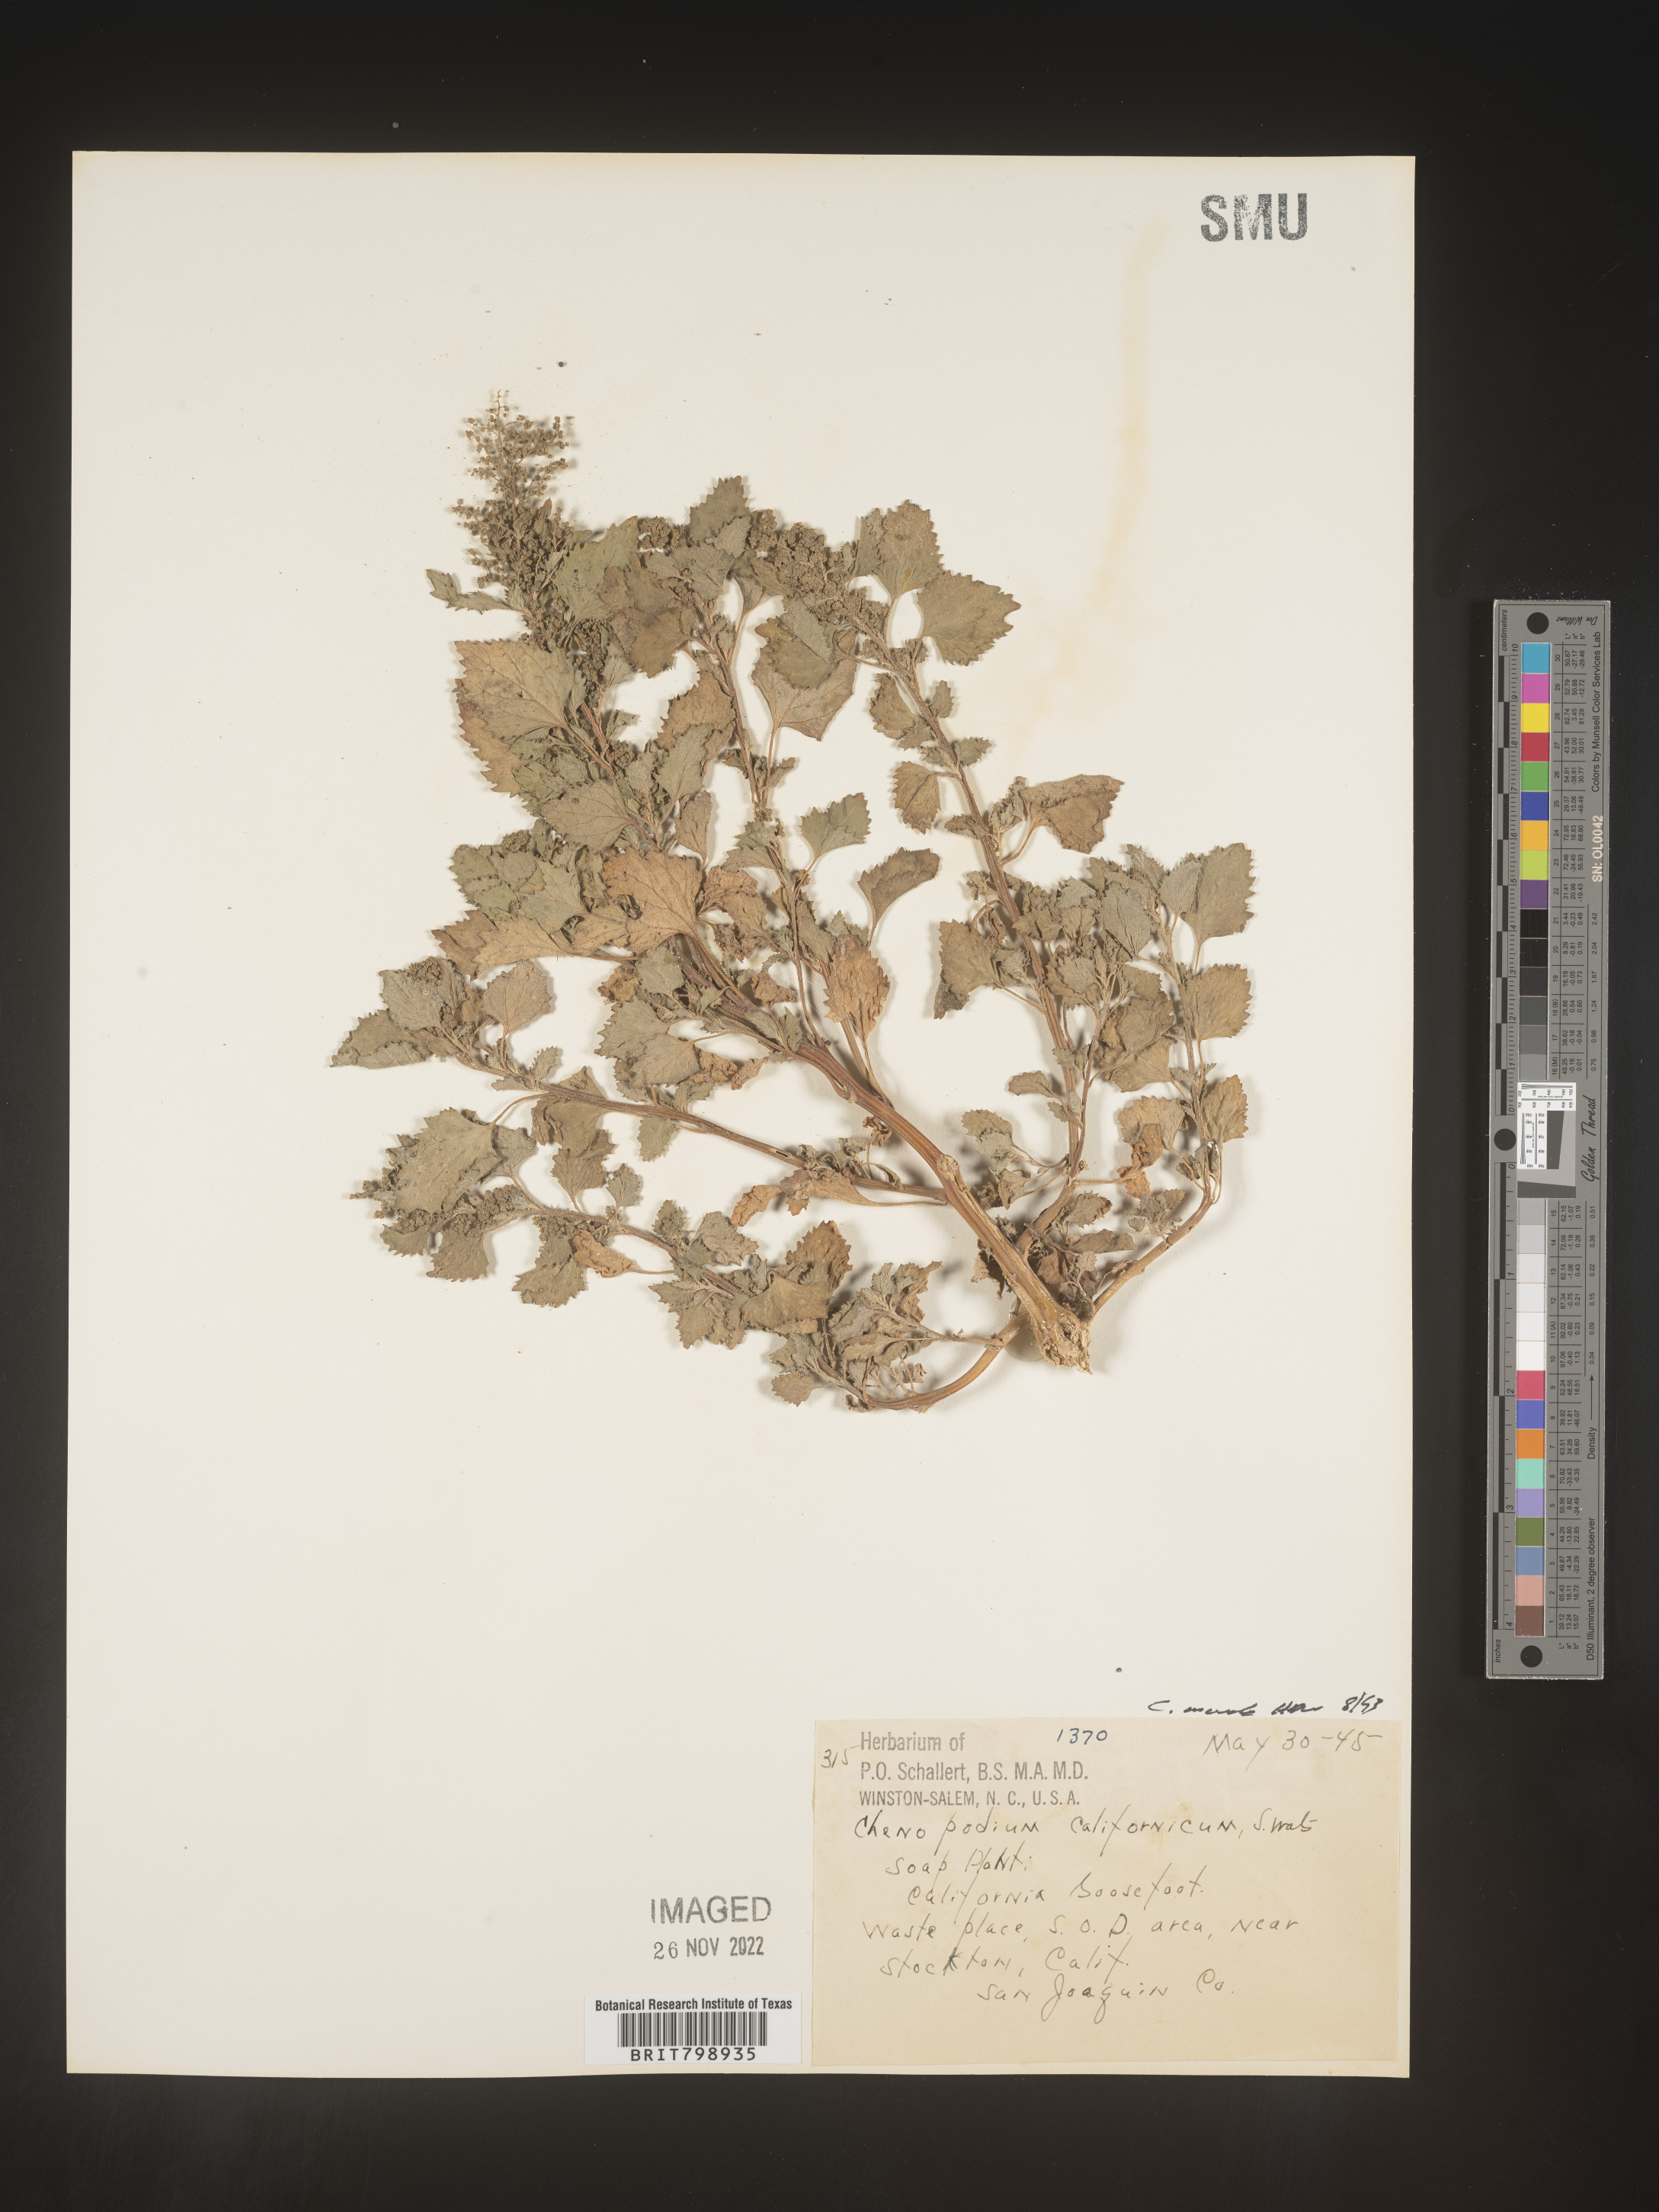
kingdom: Plantae
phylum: Tracheophyta
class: Magnoliopsida
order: Caryophyllales
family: Amaranthaceae
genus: Chenopodiastrum
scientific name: Chenopodiastrum murale
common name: Sowbane
